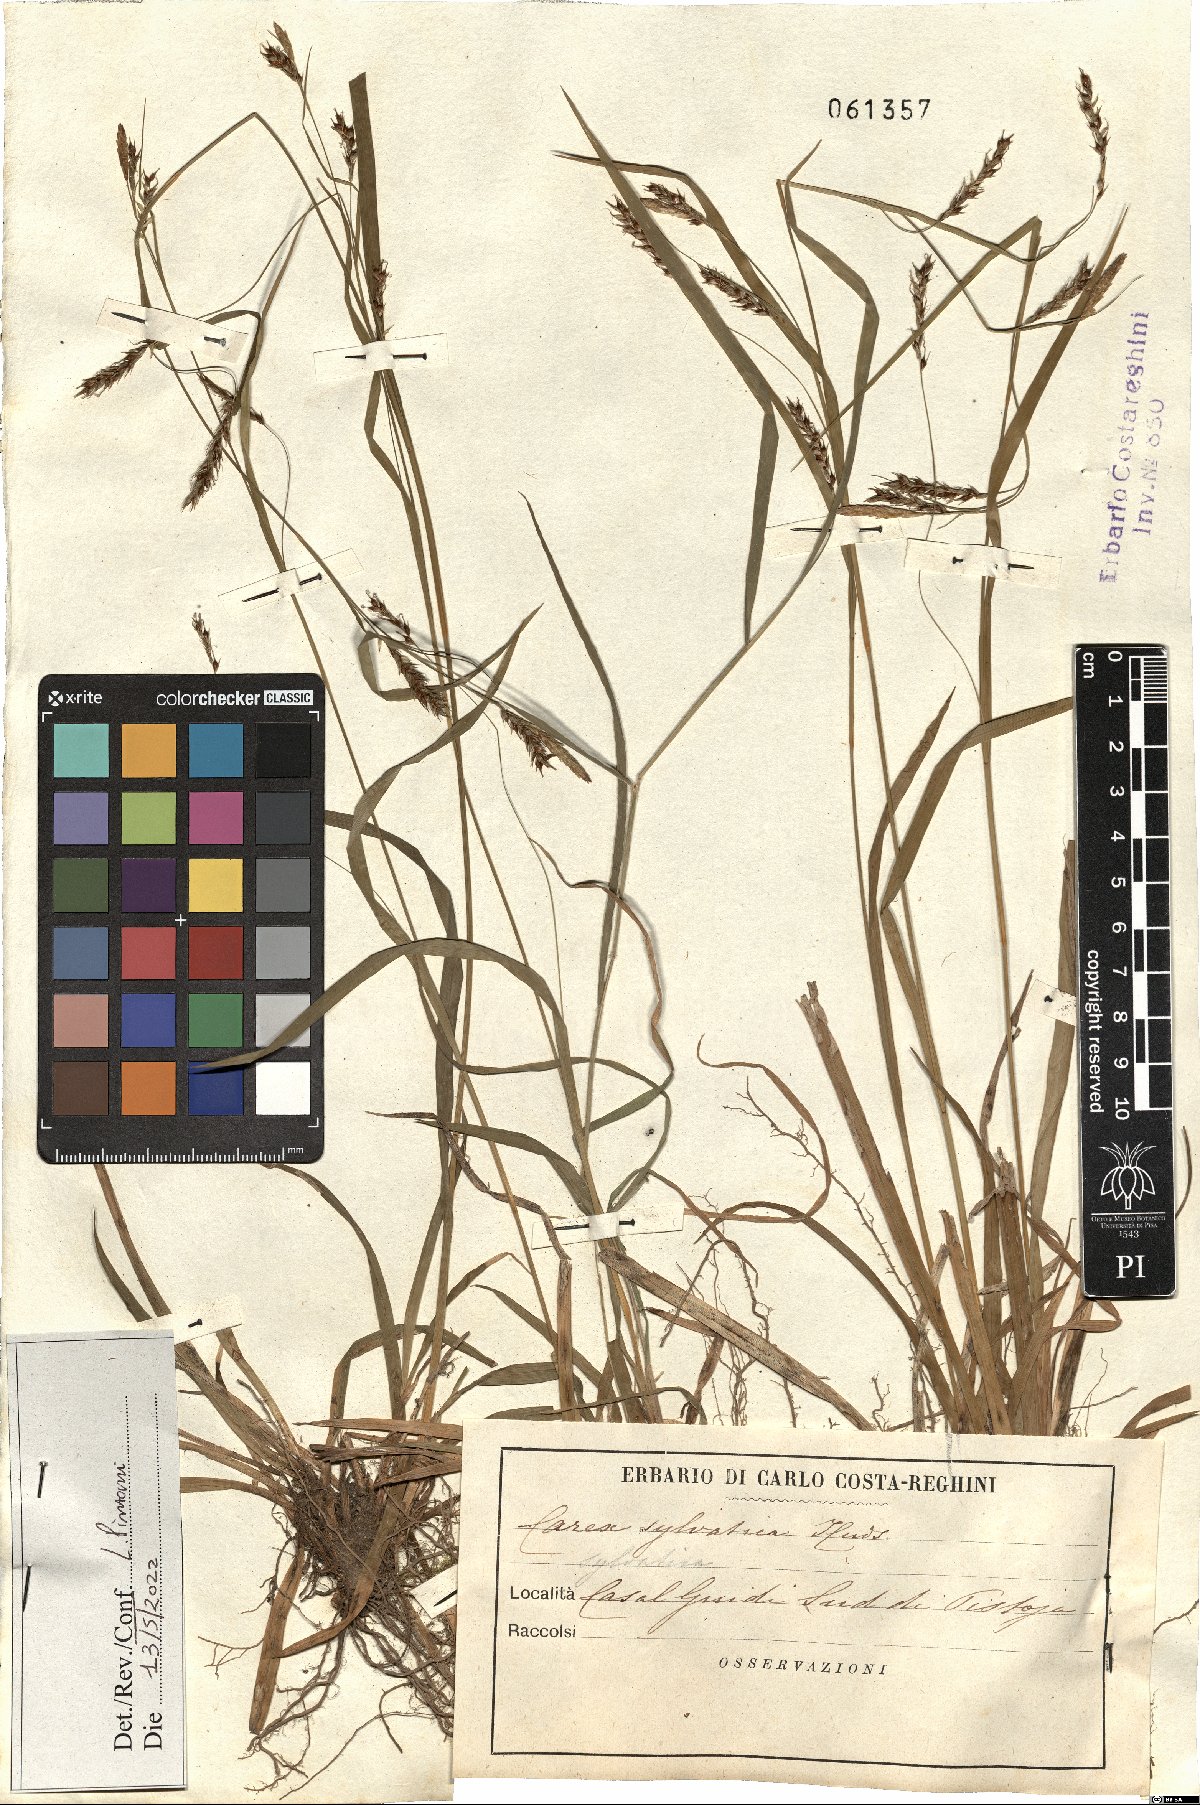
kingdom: Plantae
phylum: Tracheophyta
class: Liliopsida
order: Poales
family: Cyperaceae
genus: Carex
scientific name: Carex sylvatica
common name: Wood-sedge
